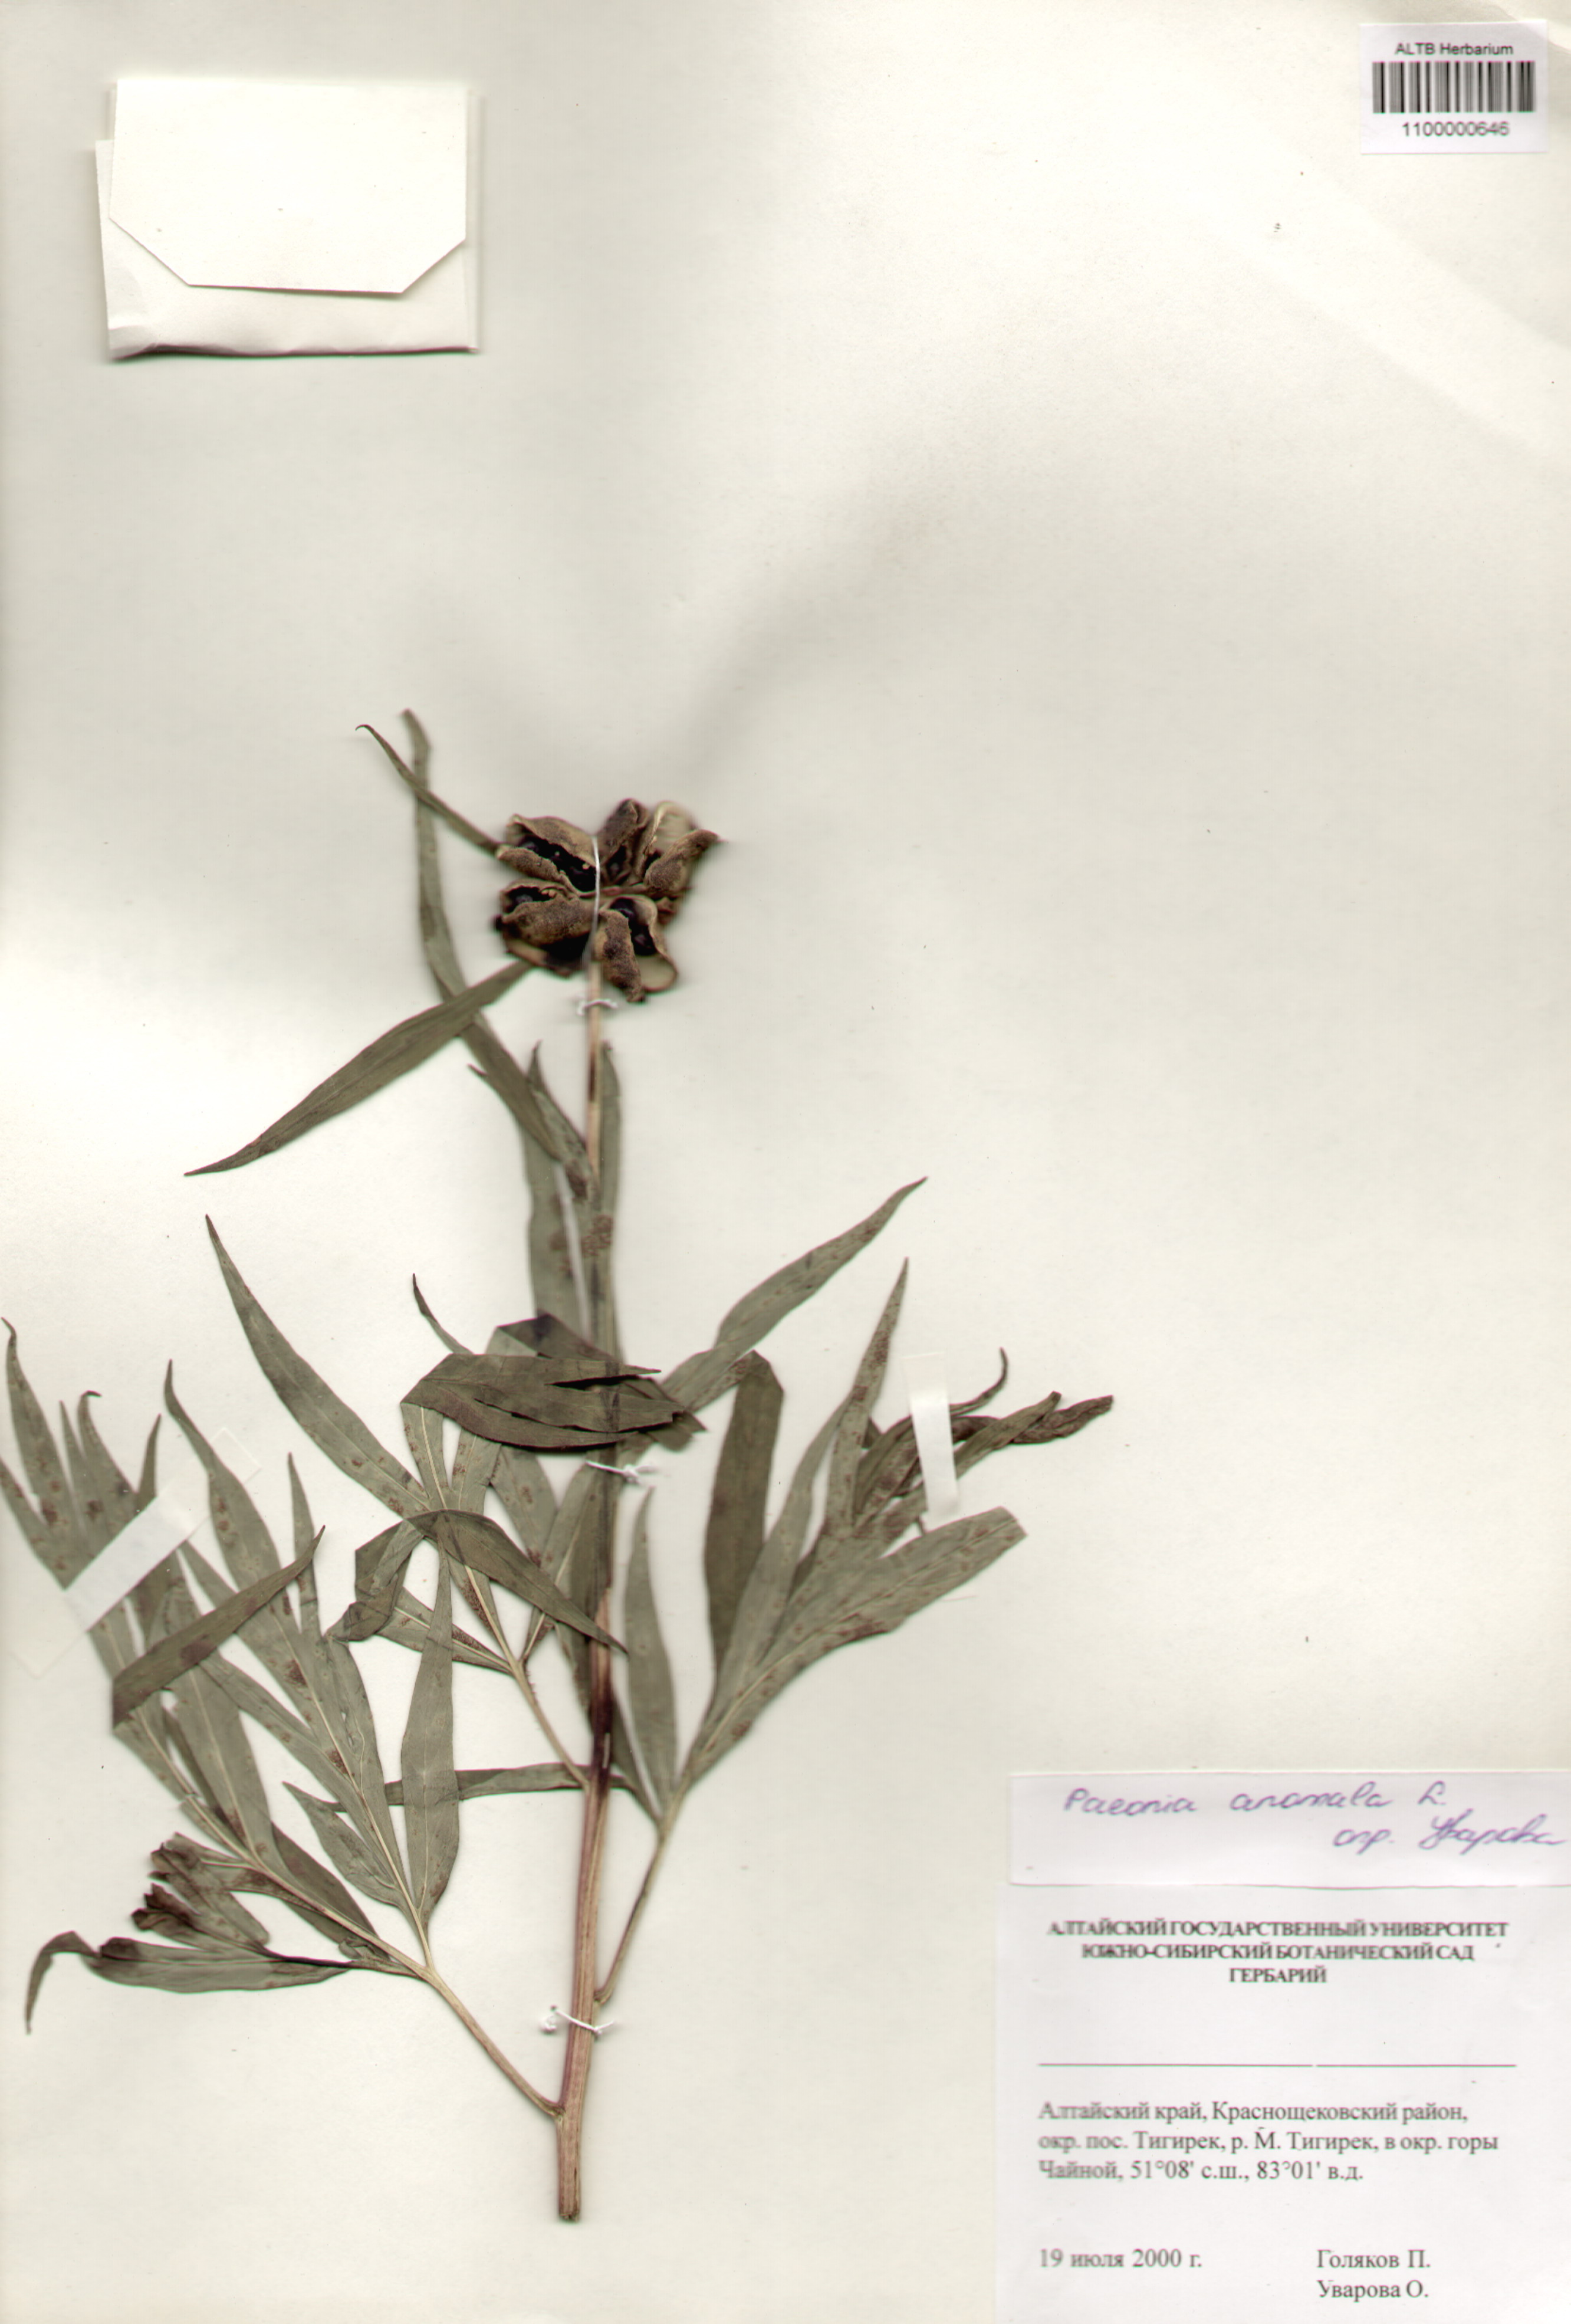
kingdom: Plantae
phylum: Tracheophyta
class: Magnoliopsida
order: Saxifragales
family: Paeoniaceae
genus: Paeonia
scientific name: Paeonia anomala
